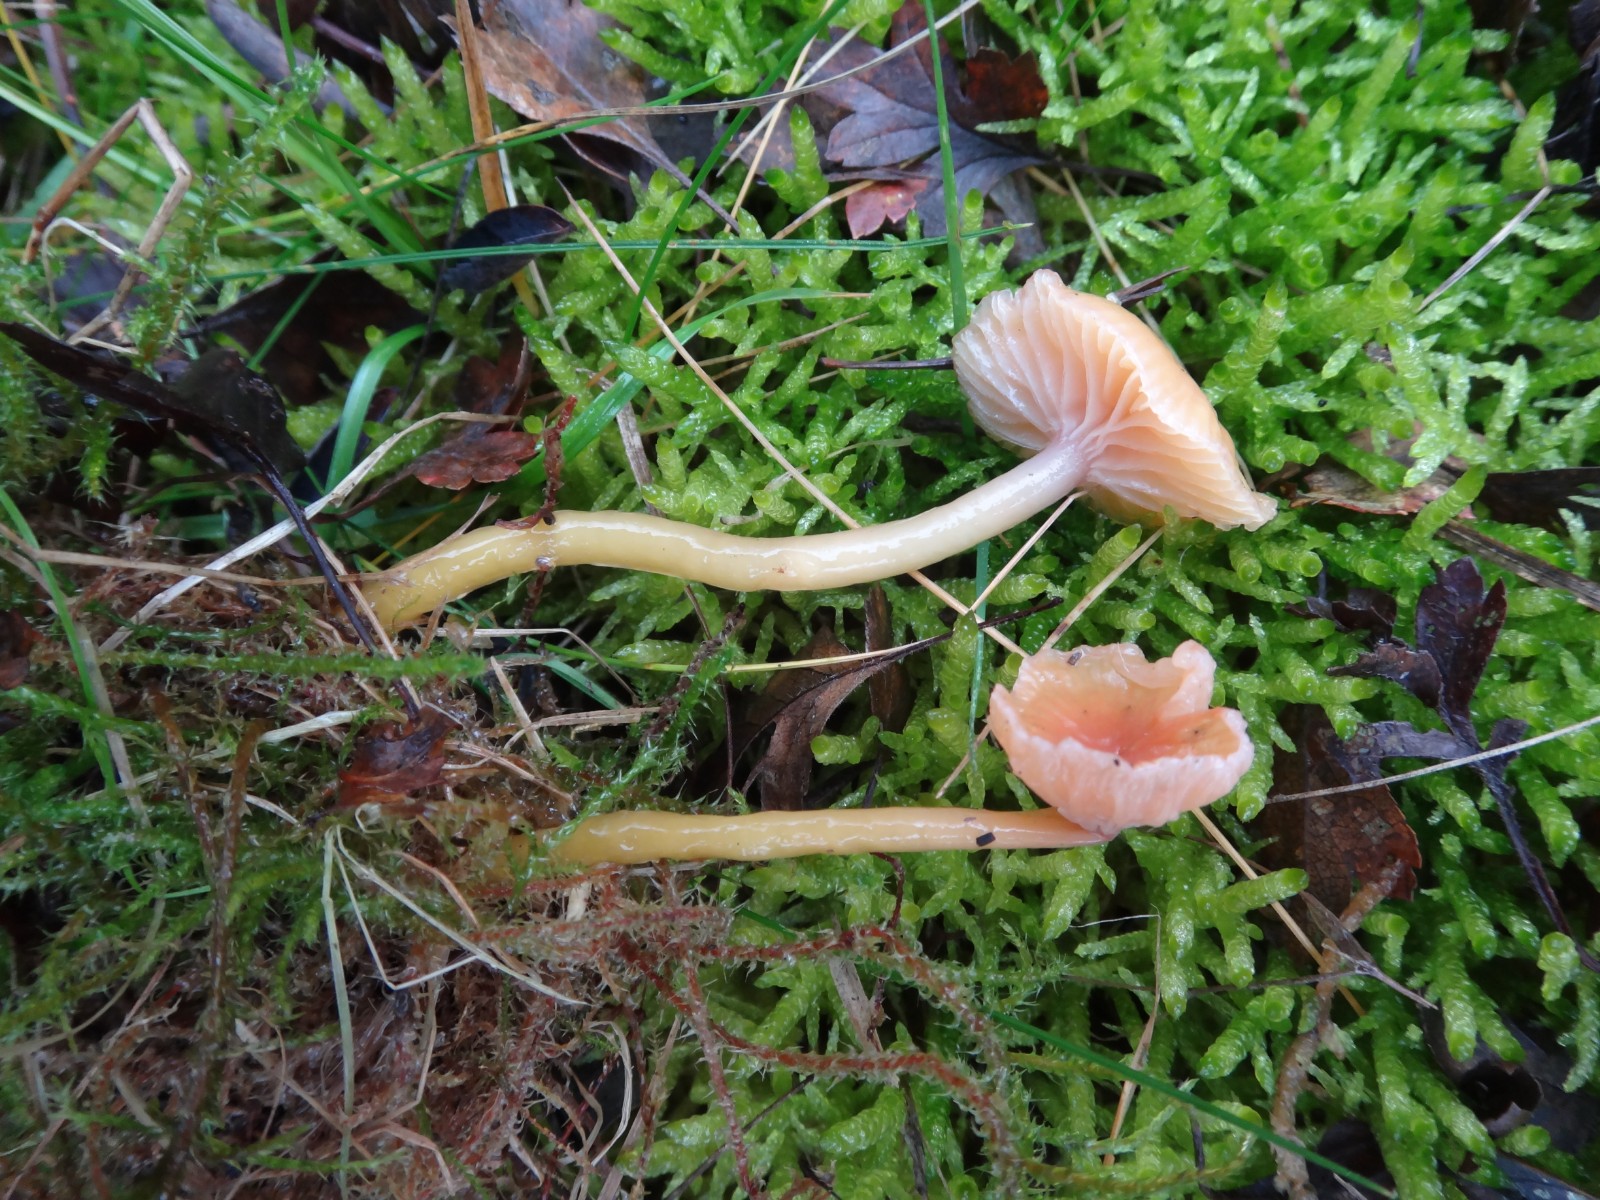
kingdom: Fungi
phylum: Basidiomycota
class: Agaricomycetes
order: Agaricales
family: Hygrophoraceae
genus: Gliophorus
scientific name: Gliophorus laetus
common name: brusk-vokshat
